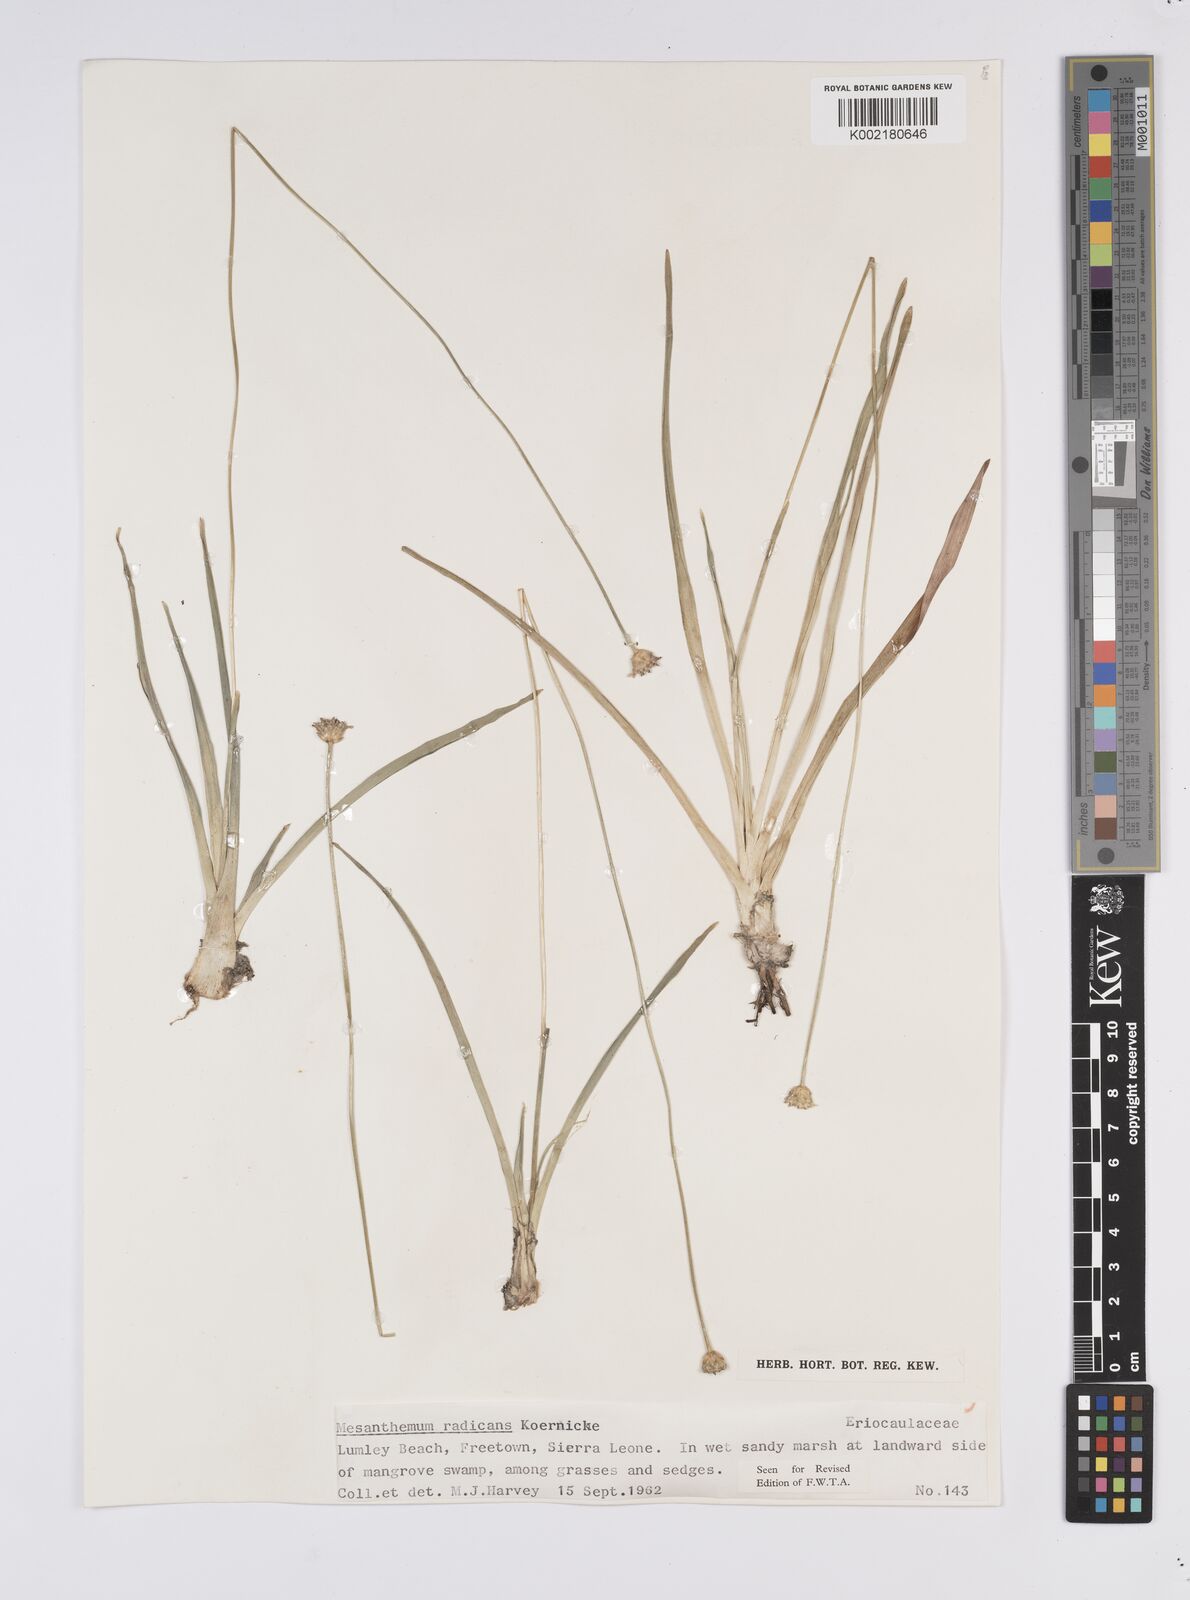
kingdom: Plantae
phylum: Tracheophyta
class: Liliopsida
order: Poales
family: Eriocaulaceae
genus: Mesanthemum
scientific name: Mesanthemum radicans
